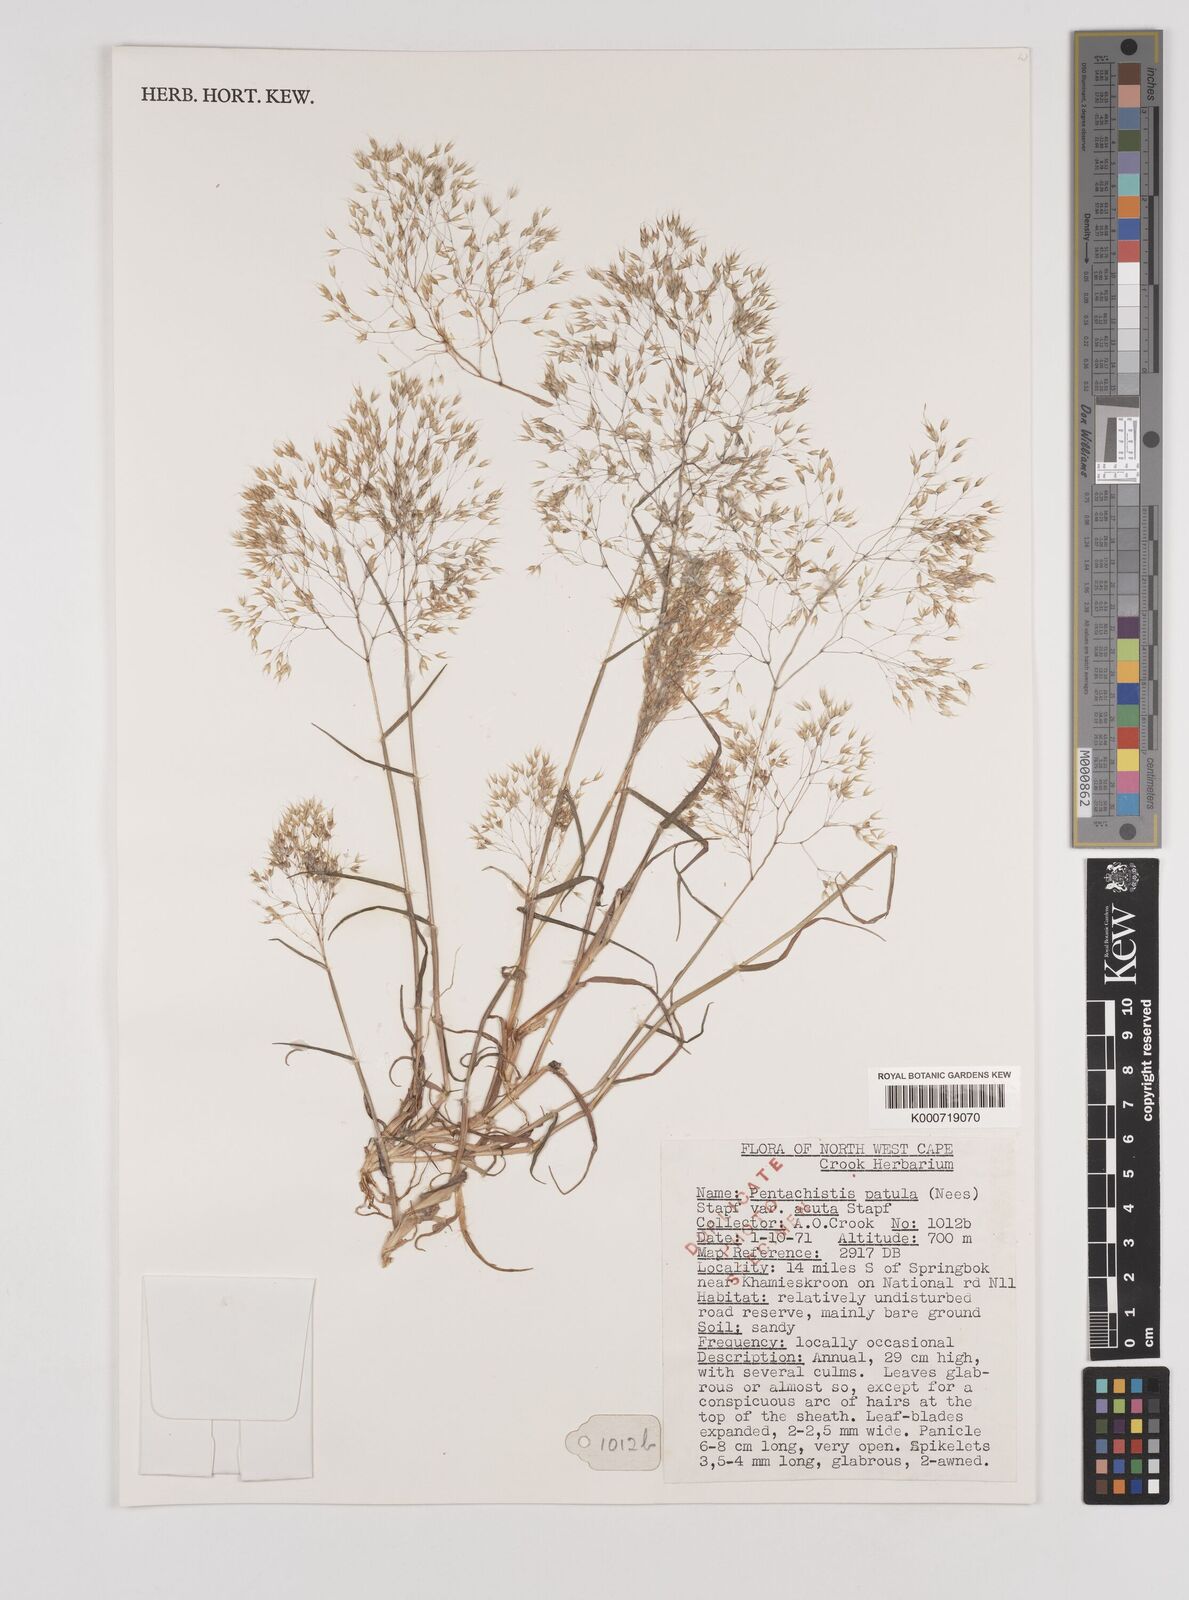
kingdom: Plantae
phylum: Tracheophyta
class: Liliopsida
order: Poales
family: Poaceae
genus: Pentameris
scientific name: Pentameris patula
